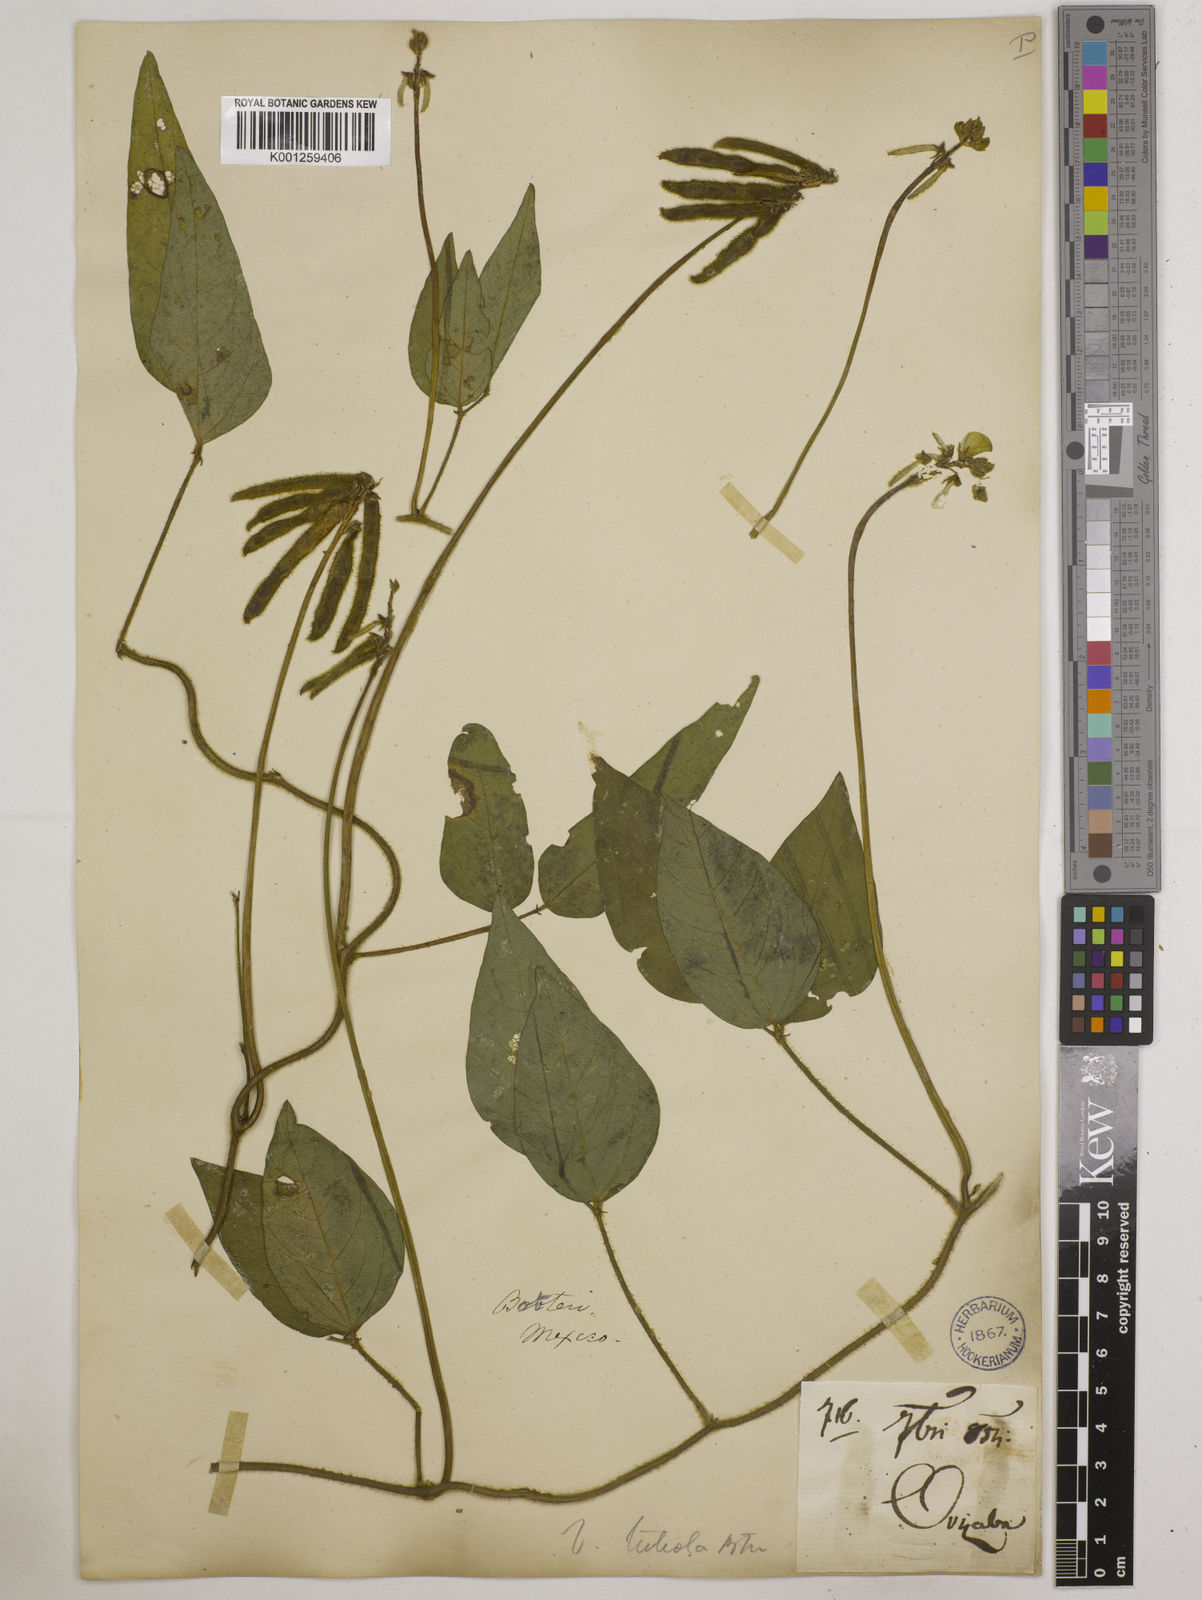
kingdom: Plantae
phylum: Tracheophyta
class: Magnoliopsida
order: Fabales
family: Fabaceae
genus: Vigna
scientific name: Vigna luteola
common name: Hairypod cowpea
